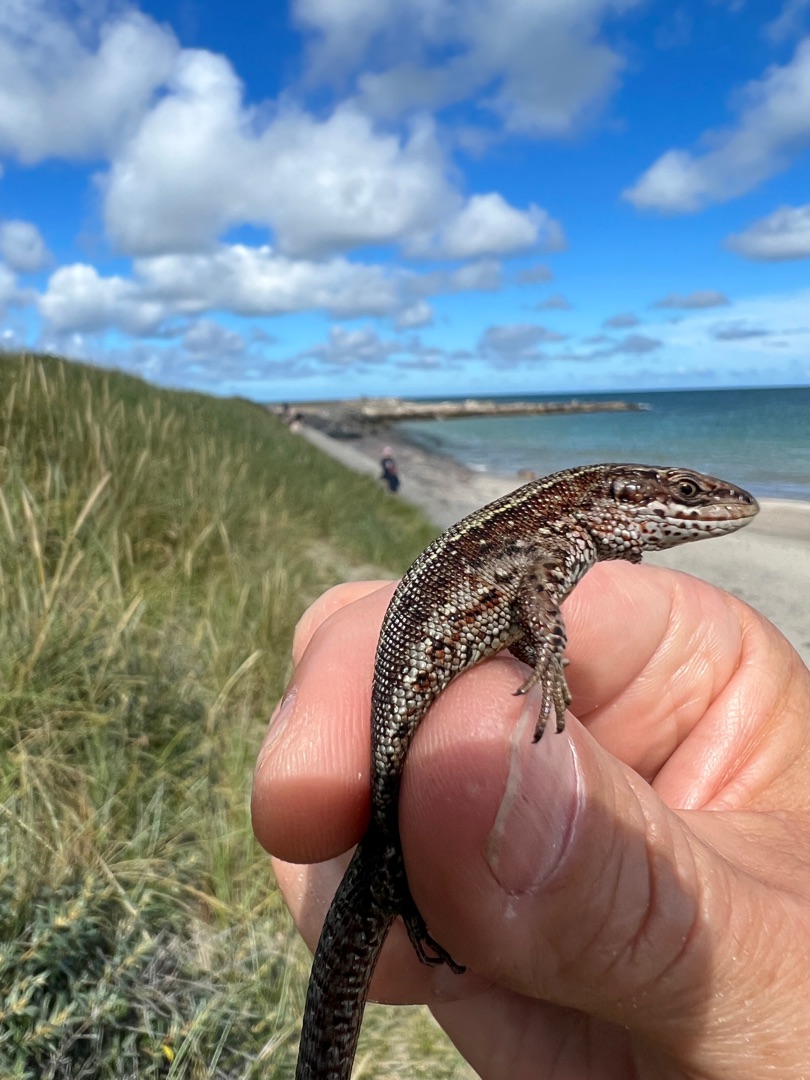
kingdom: Animalia
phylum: Chordata
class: Squamata
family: Lacertidae
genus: Zootoca
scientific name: Zootoca vivipara
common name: Skovfirben
